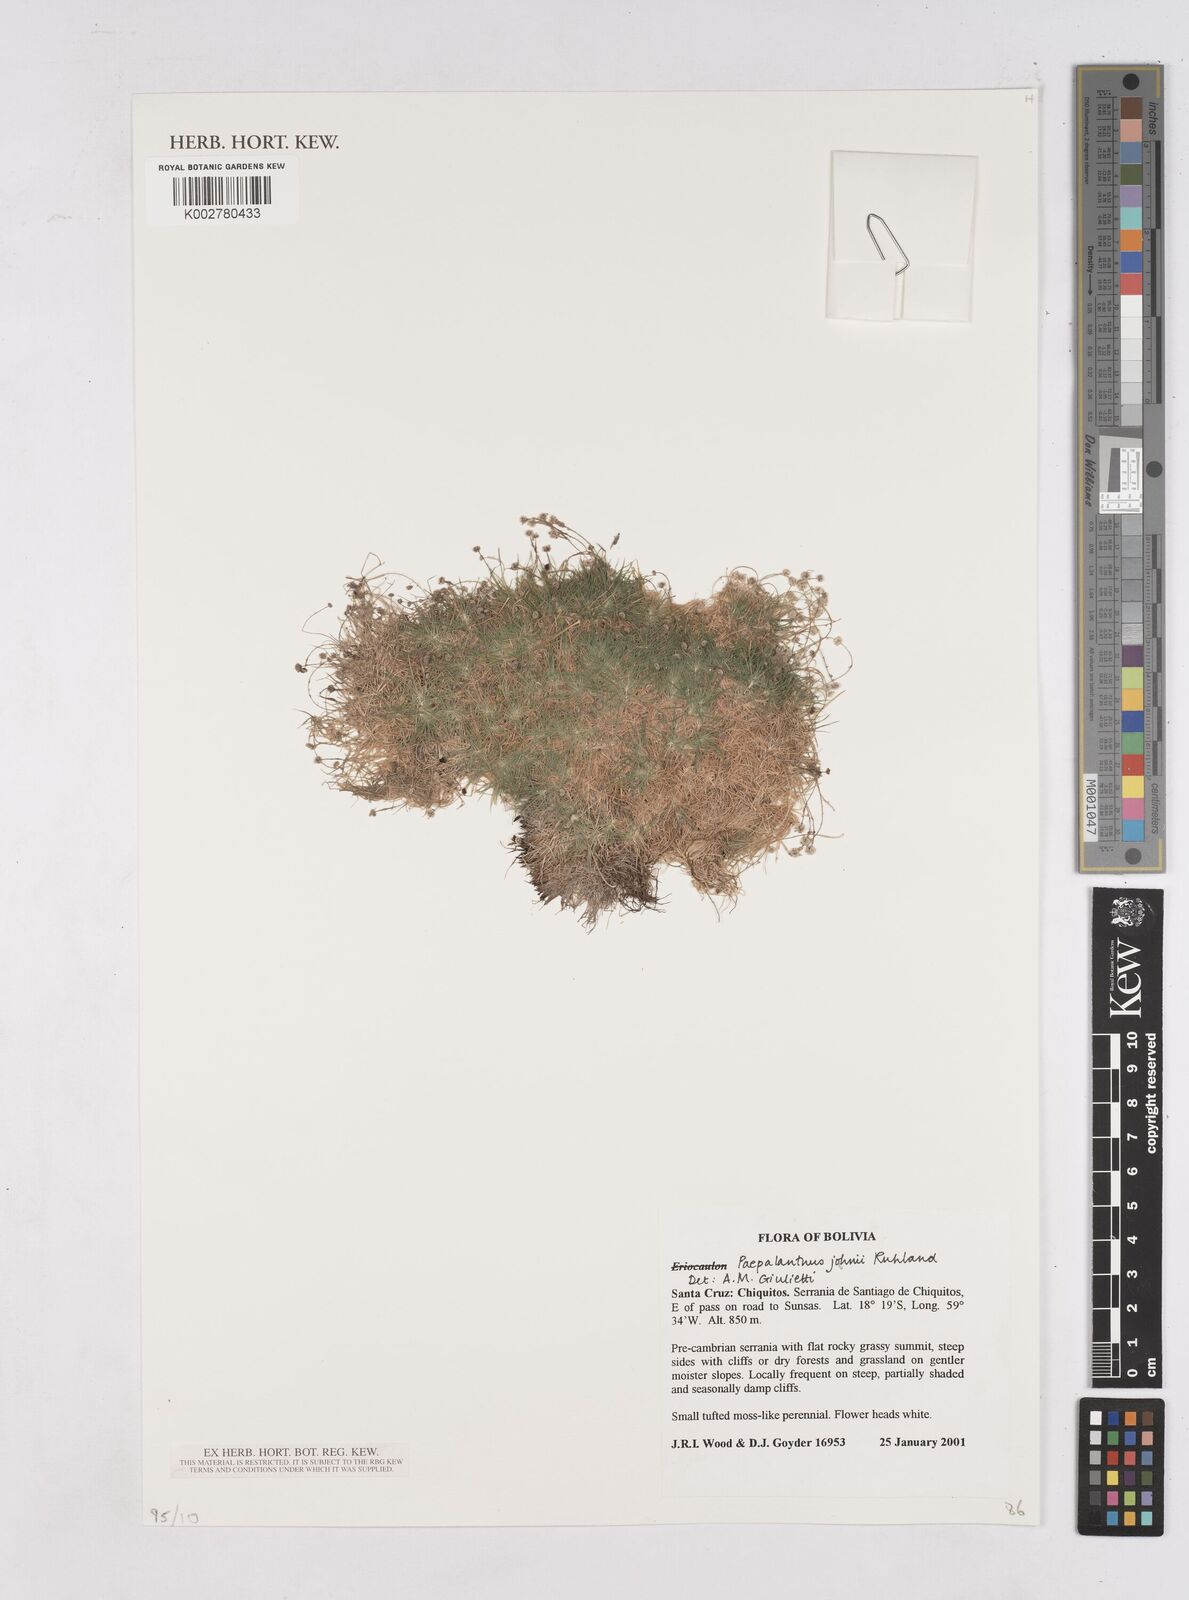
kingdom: Plantae
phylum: Tracheophyta
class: Liliopsida
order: Poales
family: Eriocaulaceae
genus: Paepalanthus
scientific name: Paepalanthus supinus
